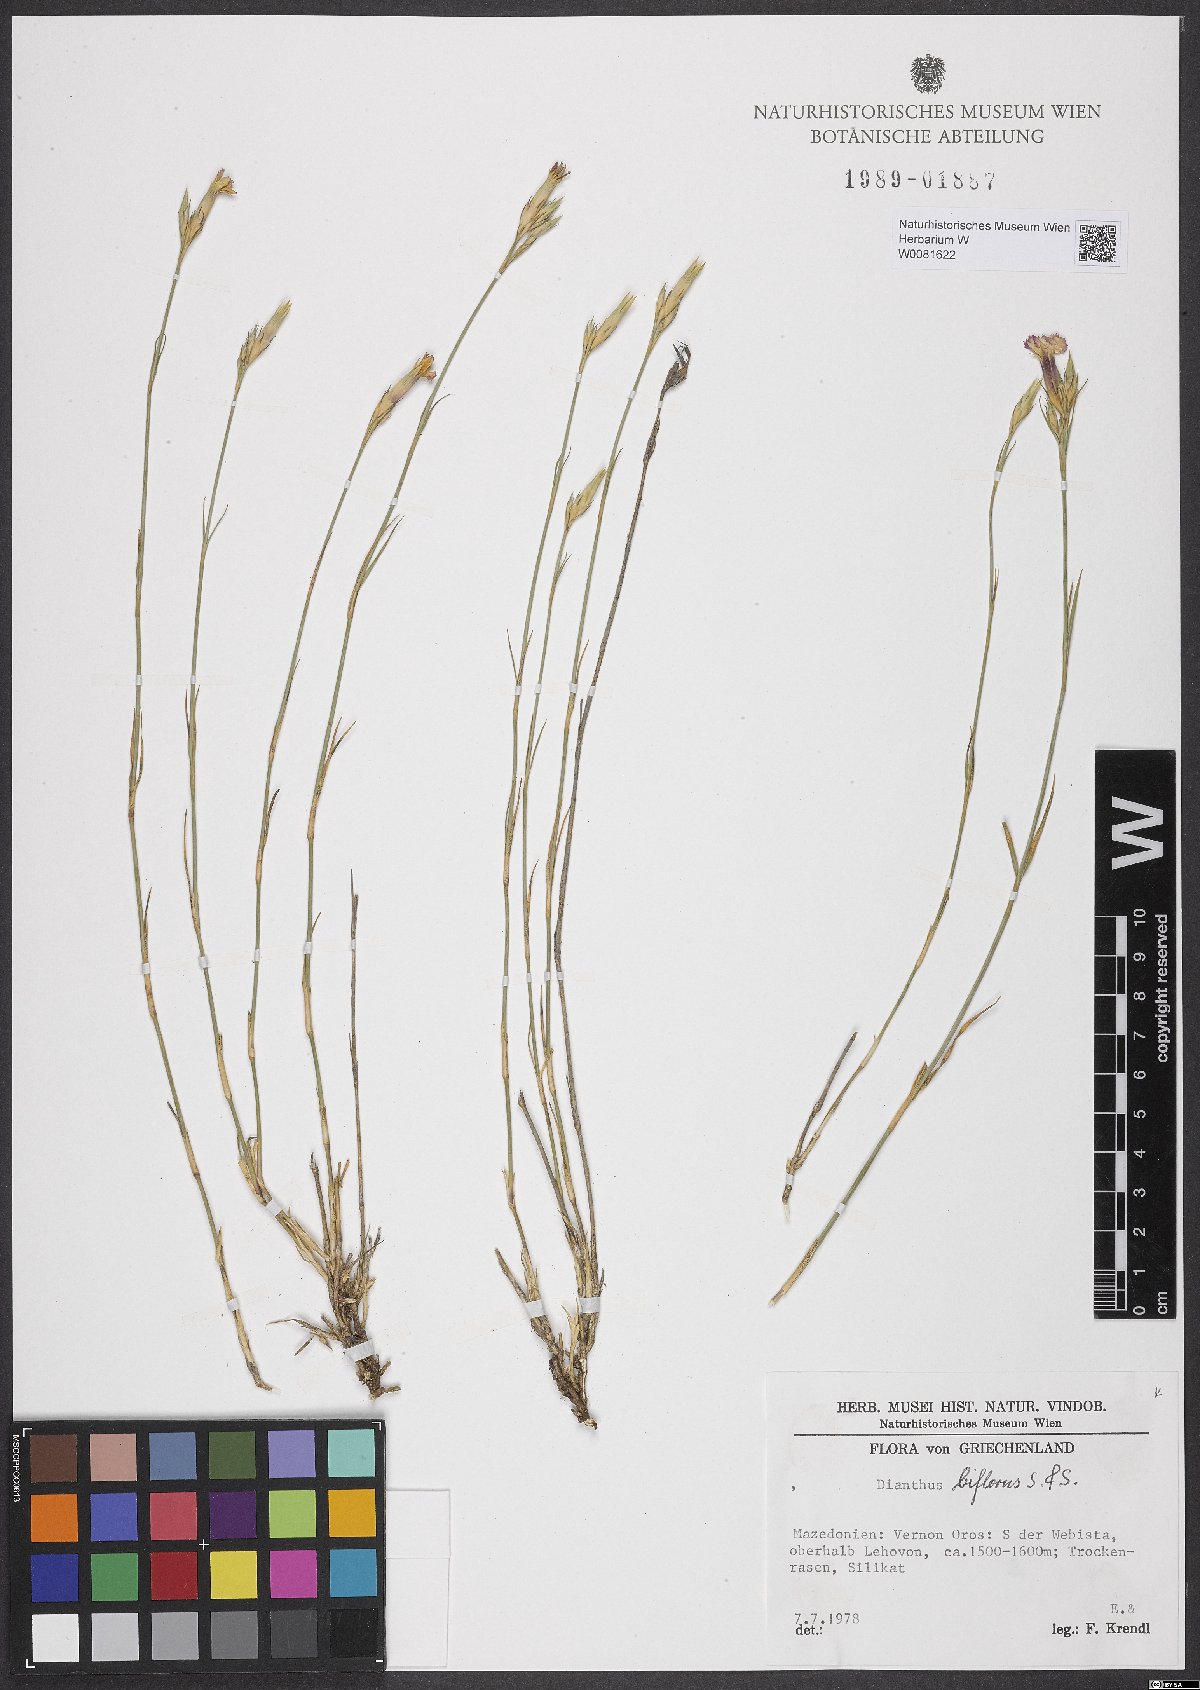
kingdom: Plantae
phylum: Tracheophyta
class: Magnoliopsida
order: Caryophyllales
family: Caryophyllaceae
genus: Dianthus
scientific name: Dianthus biflorus
